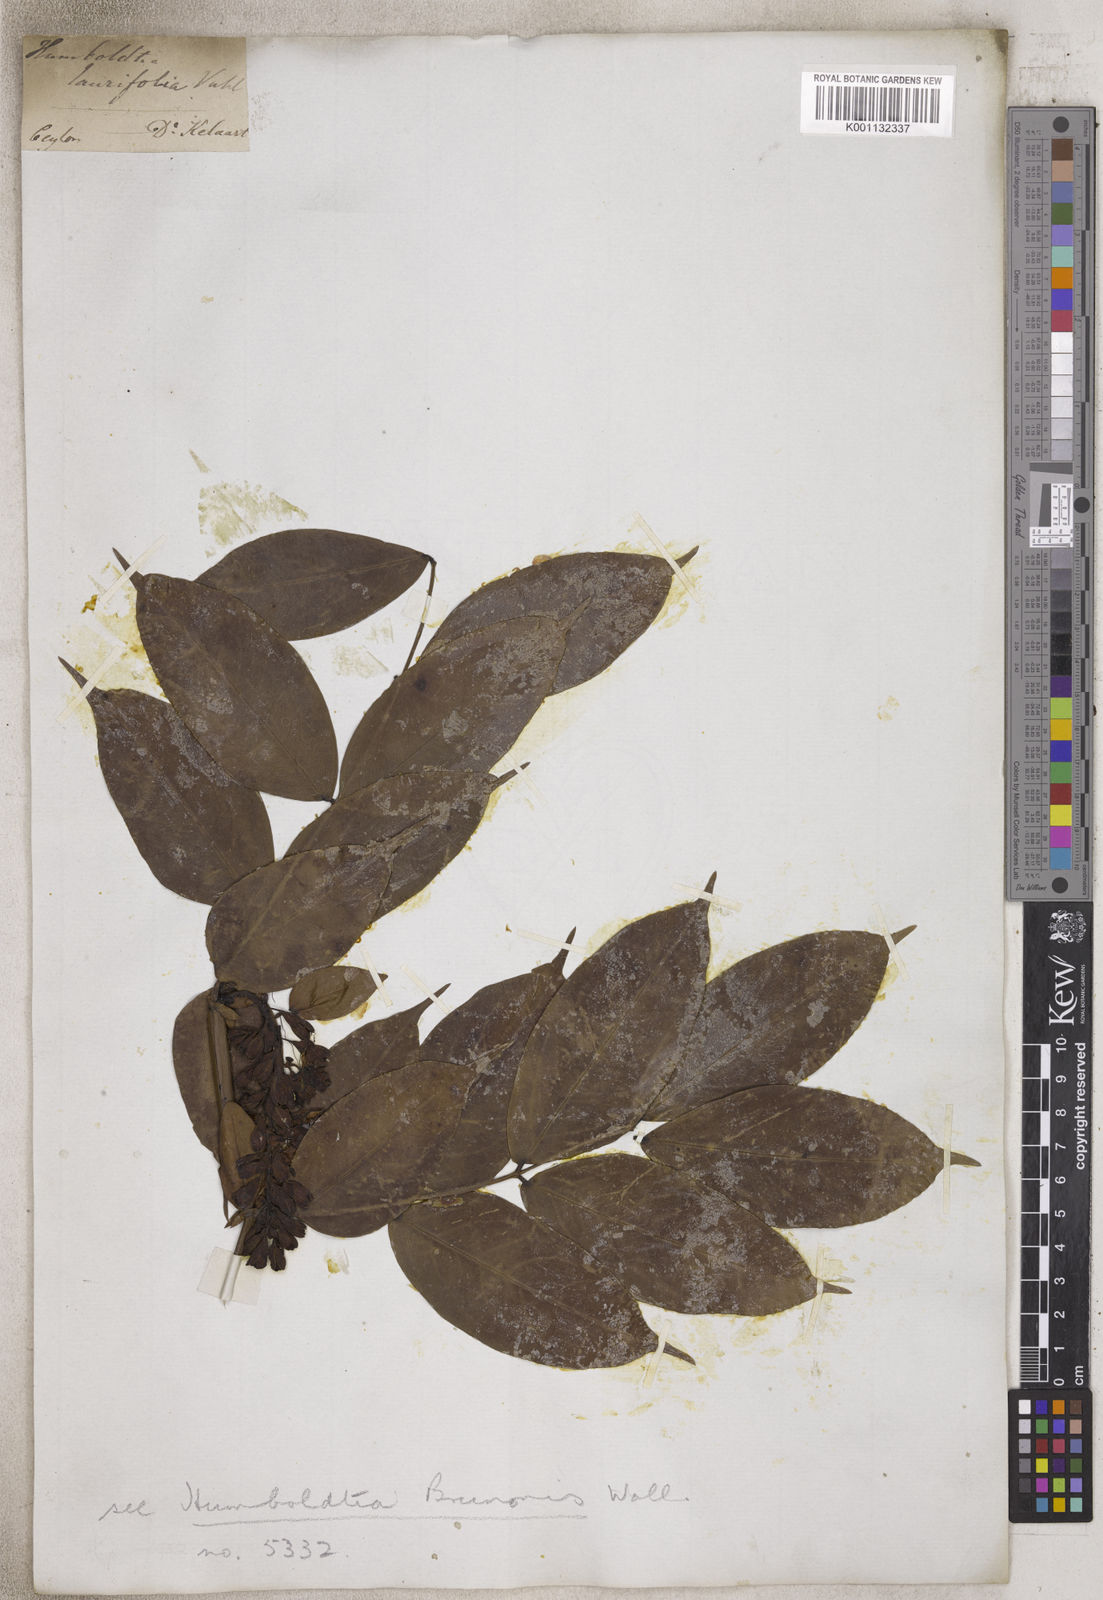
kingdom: Plantae
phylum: Tracheophyta
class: Magnoliopsida
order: Fabales
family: Fabaceae
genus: Humboldtia
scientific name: Humboldtia
